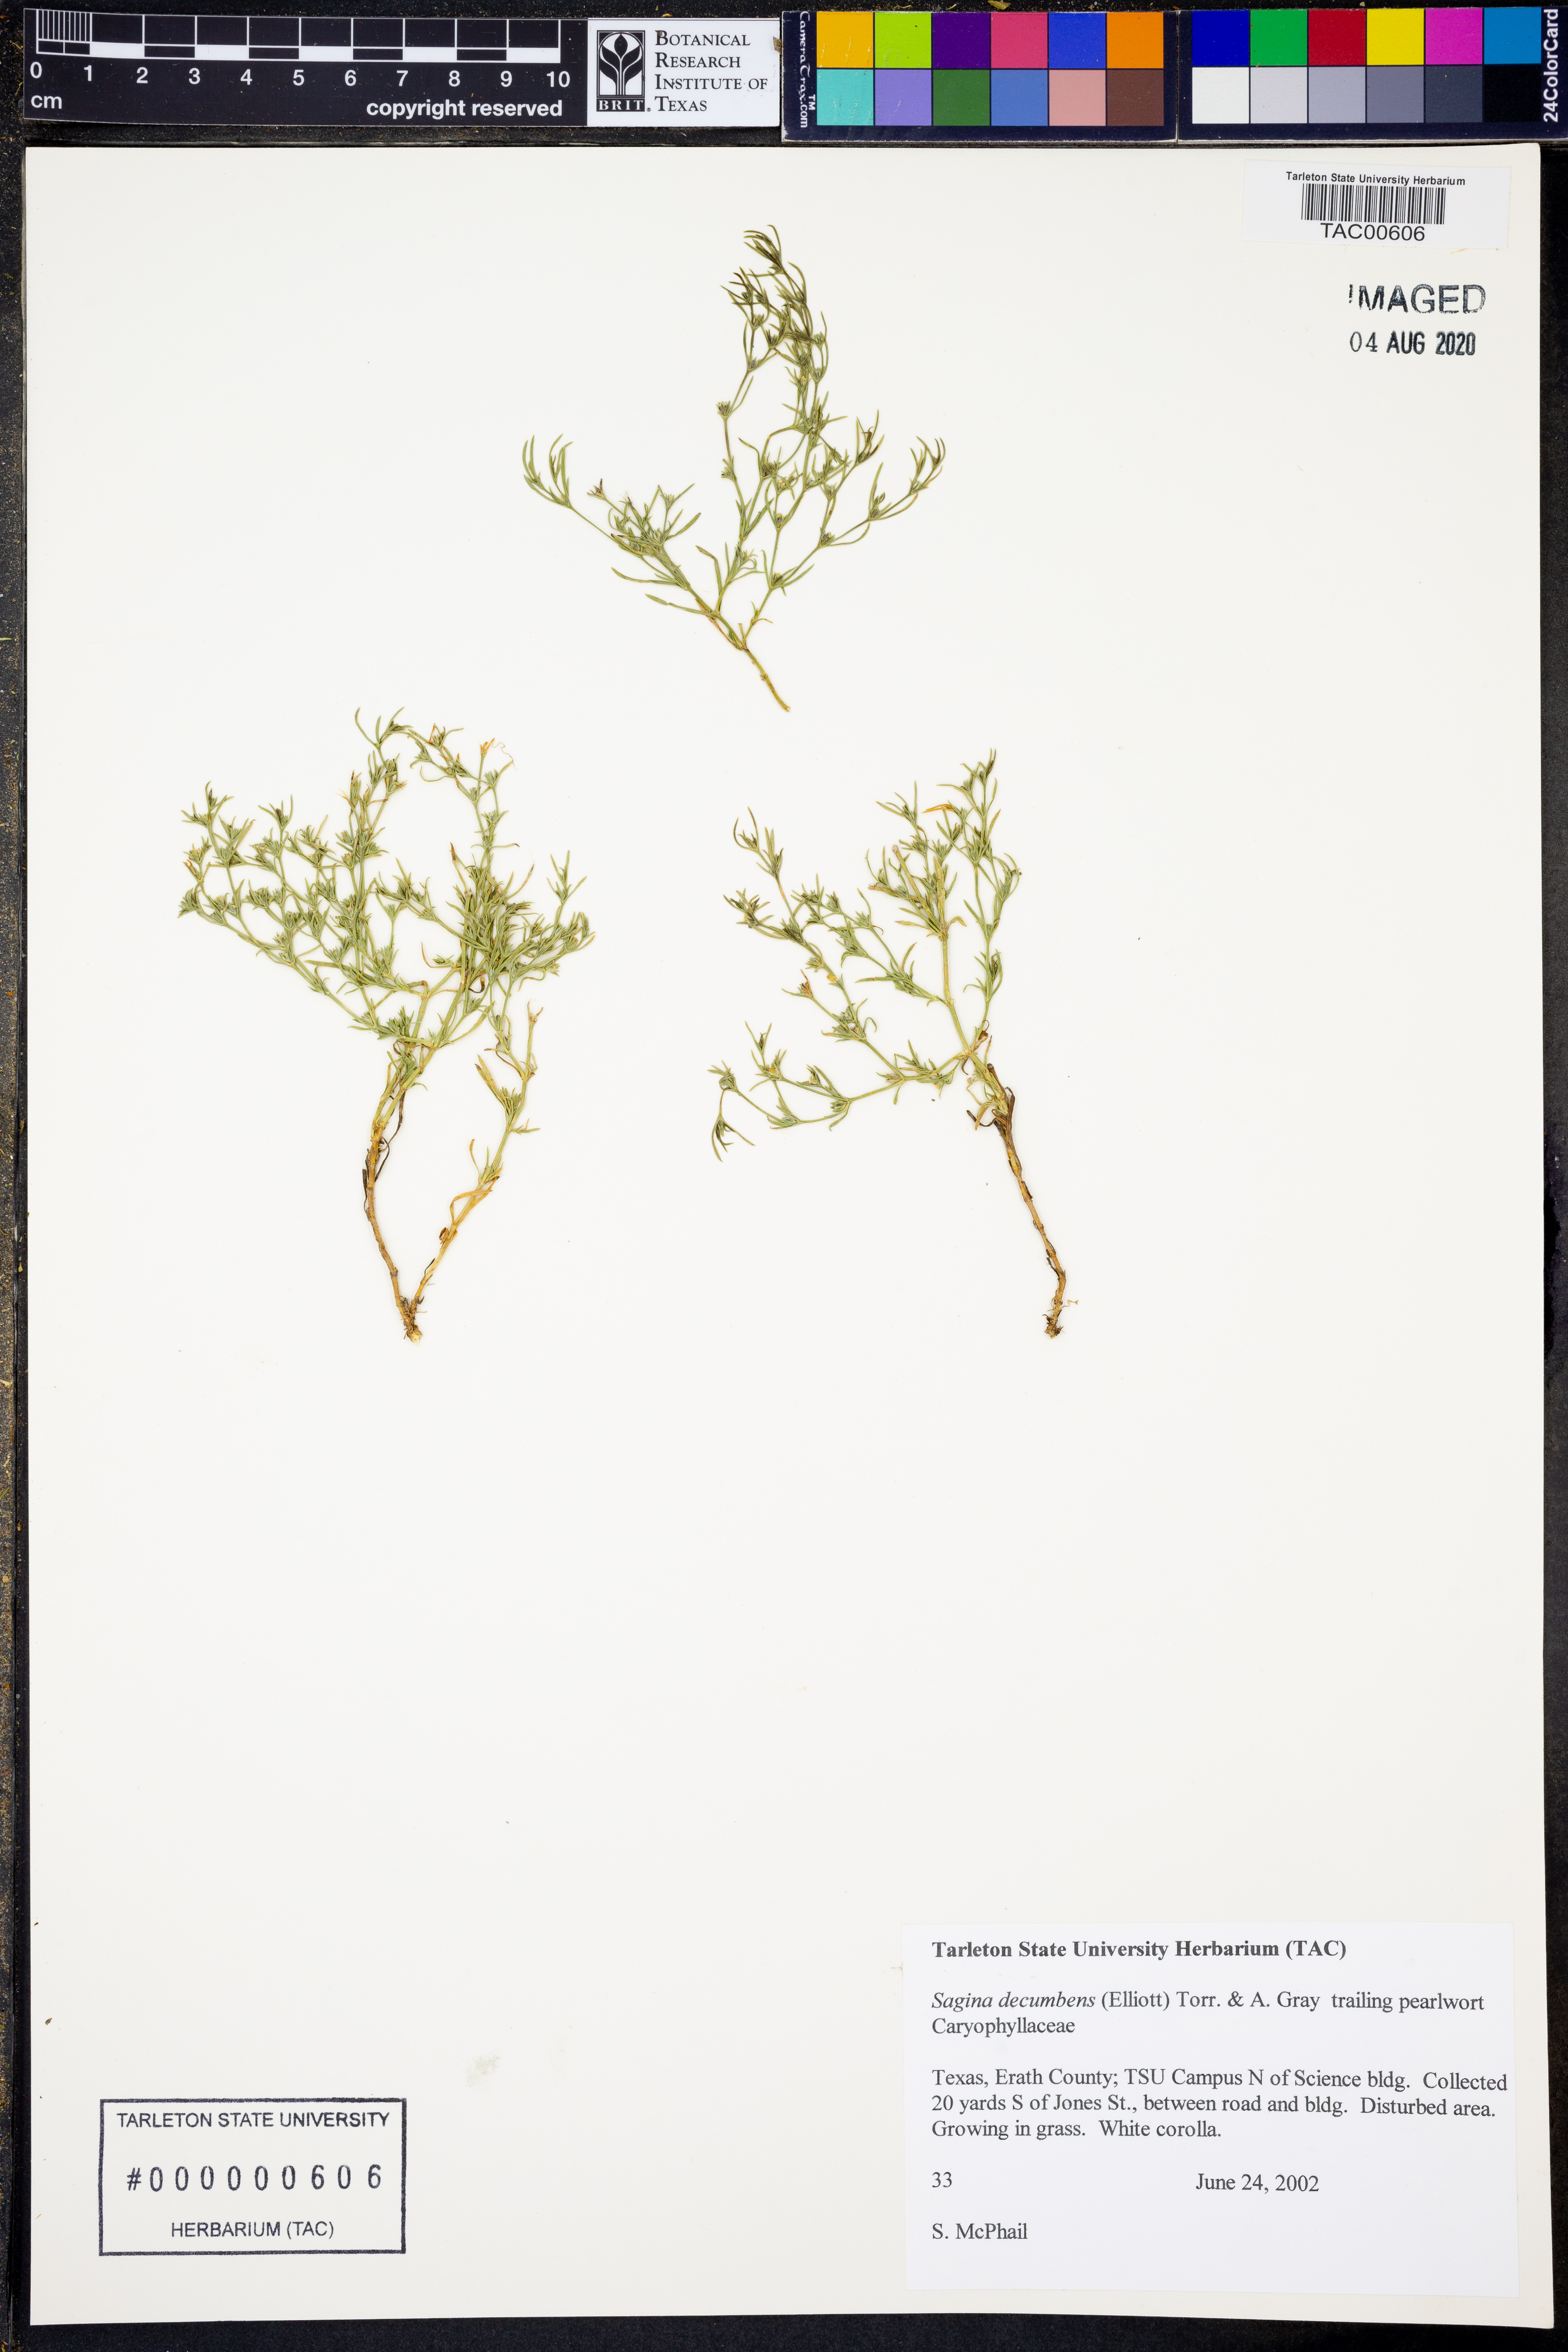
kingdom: Plantae
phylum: Tracheophyta
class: Magnoliopsida
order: Caryophyllales
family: Caryophyllaceae
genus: Sagina
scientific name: Sagina decumbens
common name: Decumbent pearlwort
